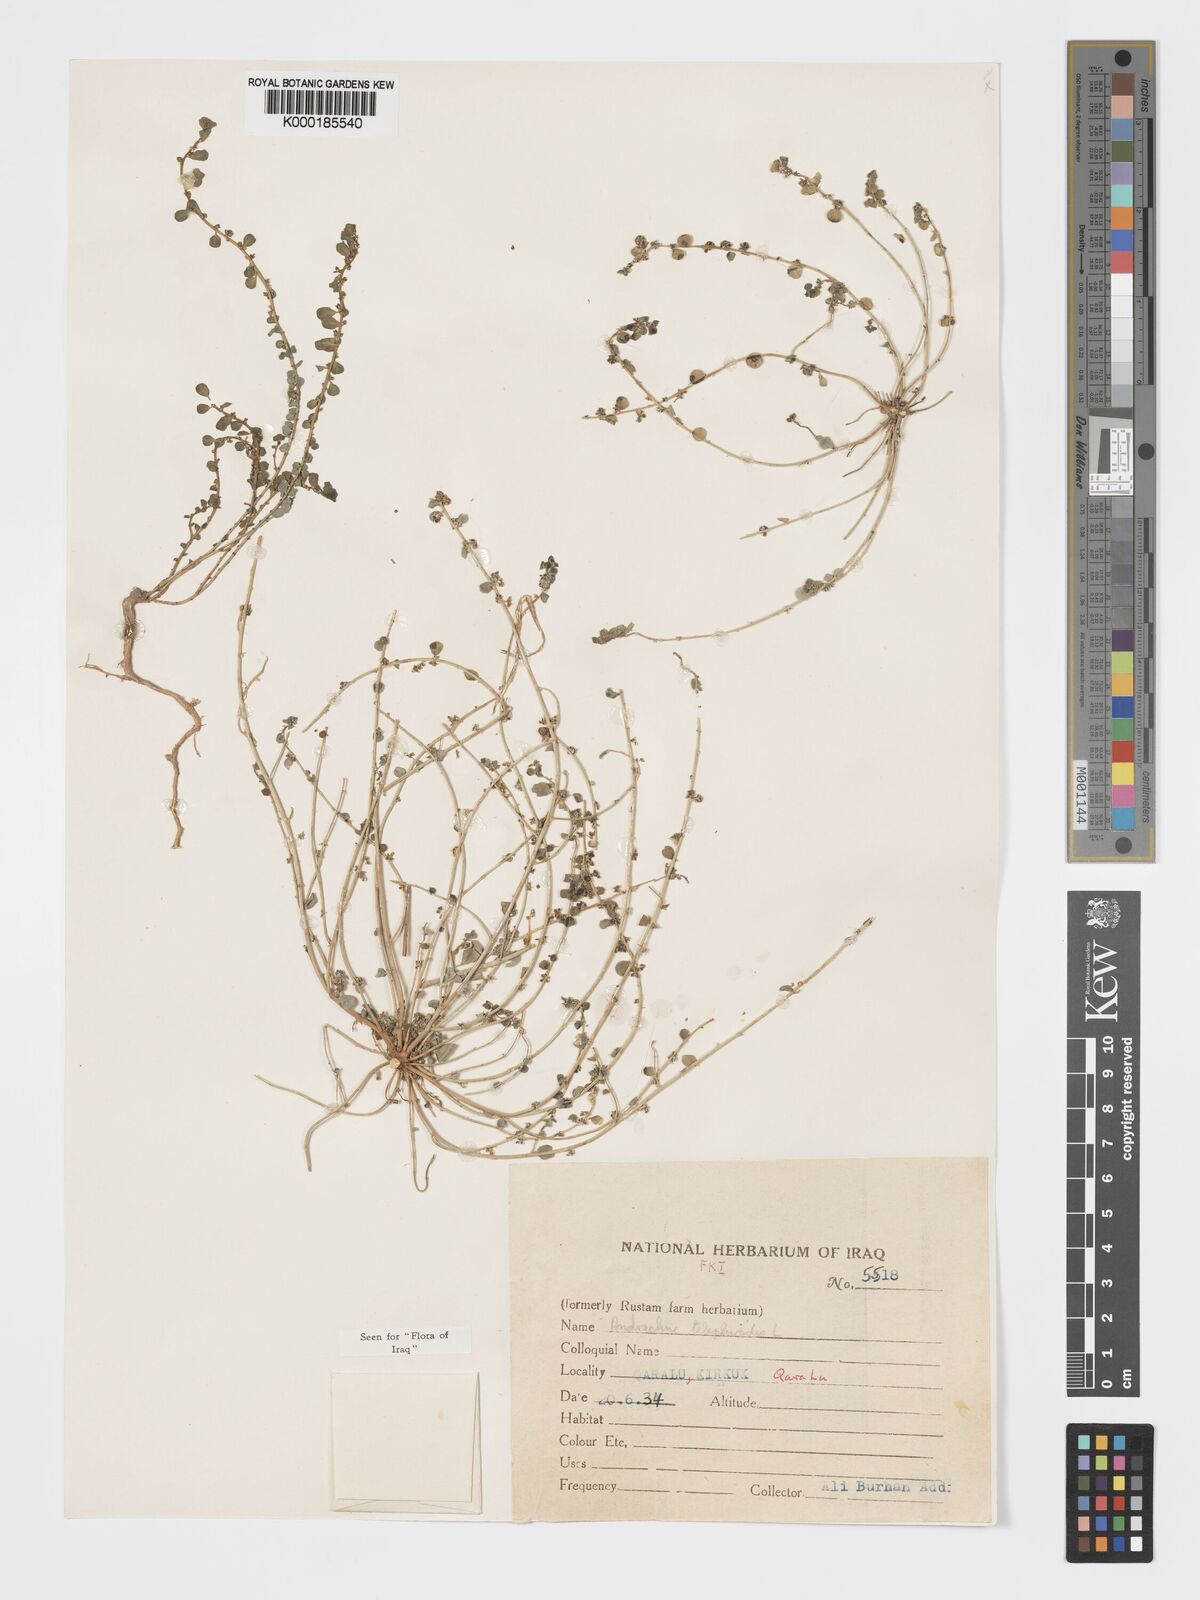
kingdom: Plantae
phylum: Tracheophyta
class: Magnoliopsida
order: Malpighiales
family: Phyllanthaceae
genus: Andrachne
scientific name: Andrachne telephioides
